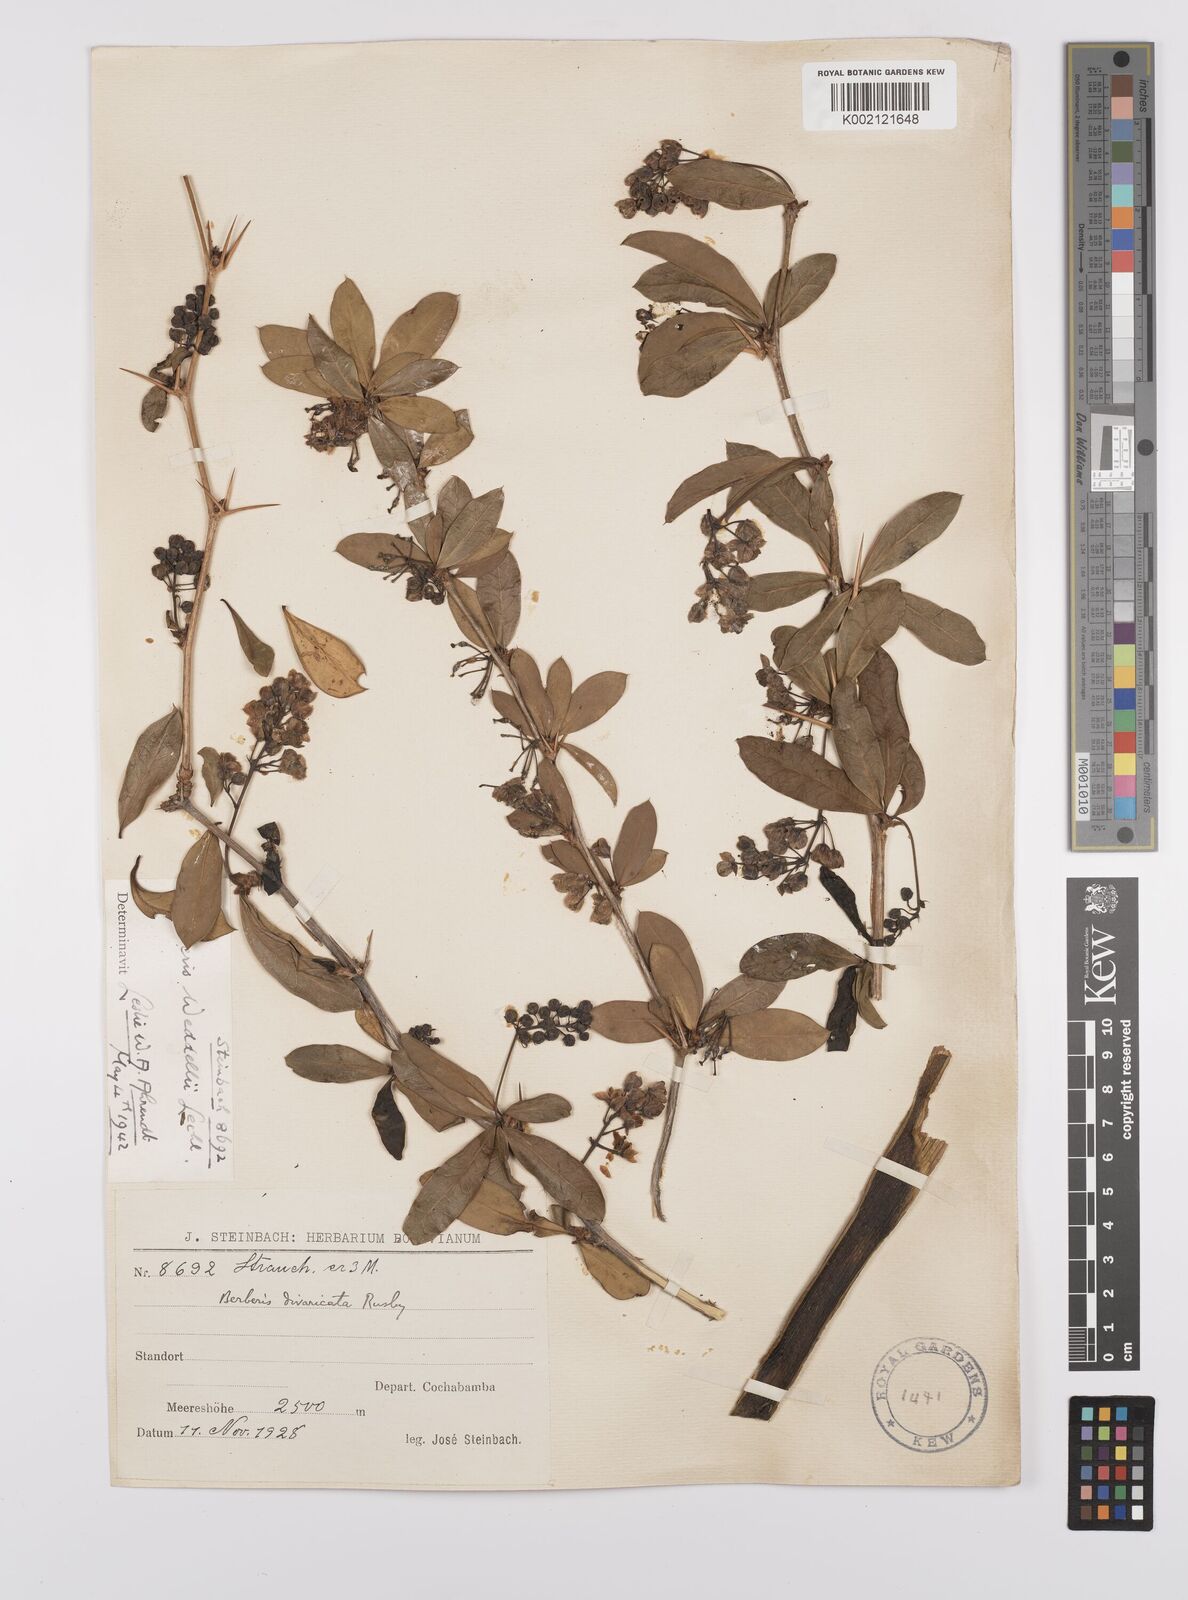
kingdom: Plantae
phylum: Tracheophyta
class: Magnoliopsida
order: Ranunculales
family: Berberidaceae
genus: Berberis
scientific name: Berberis commutata
